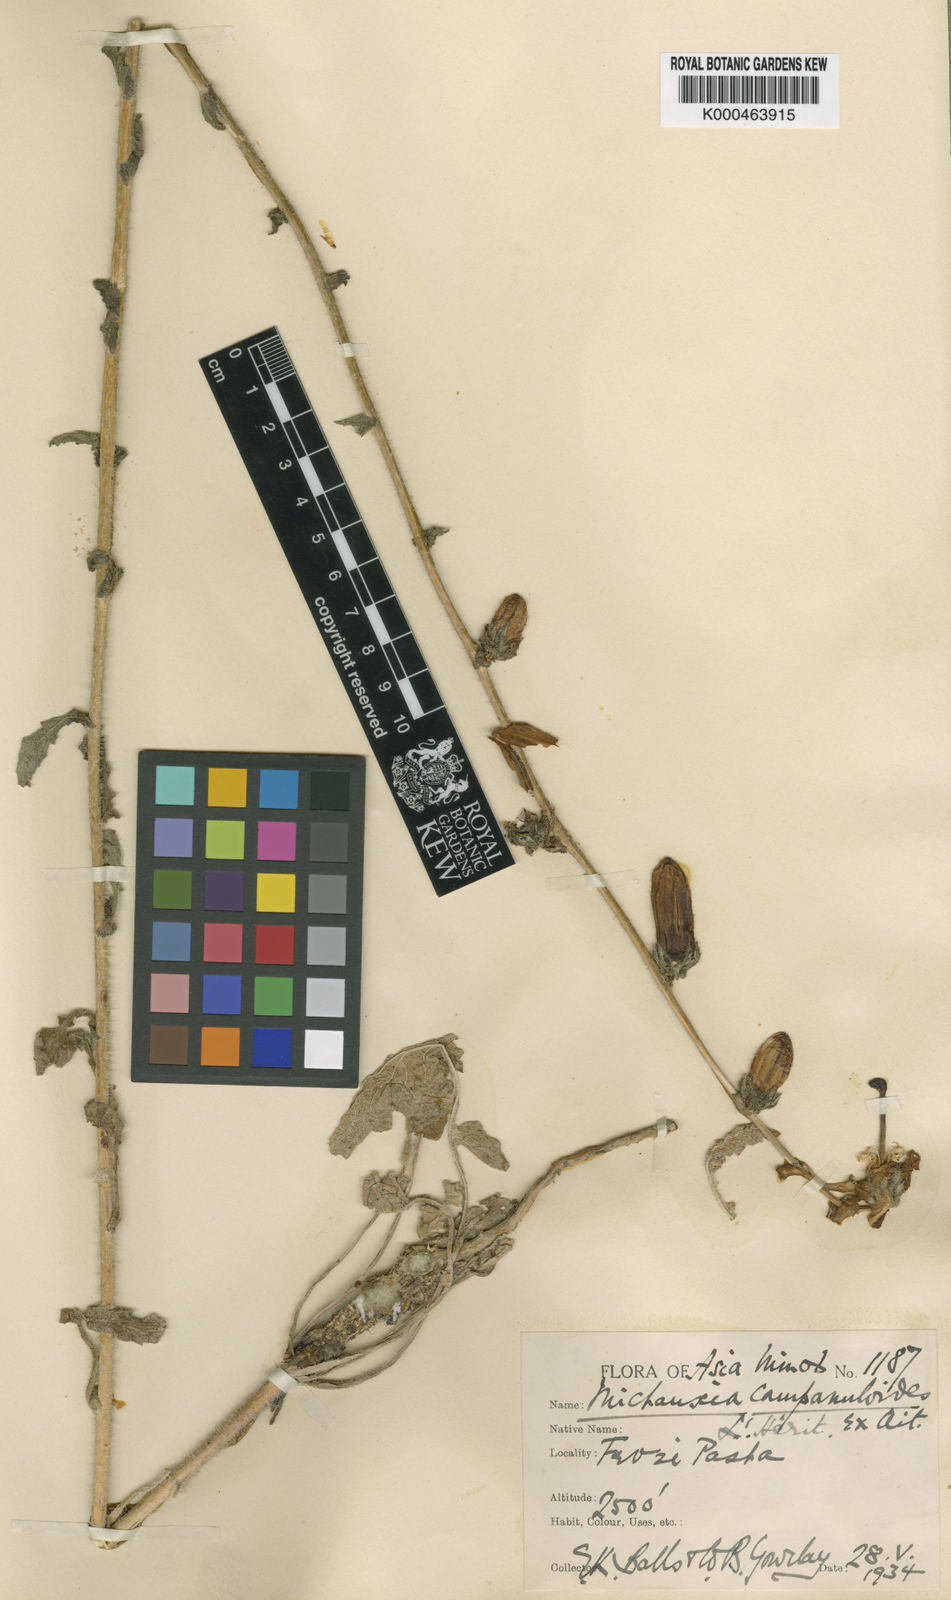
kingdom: Plantae
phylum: Tracheophyta
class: Magnoliopsida
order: Asterales
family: Campanulaceae
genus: Michauxia
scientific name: Michauxia
